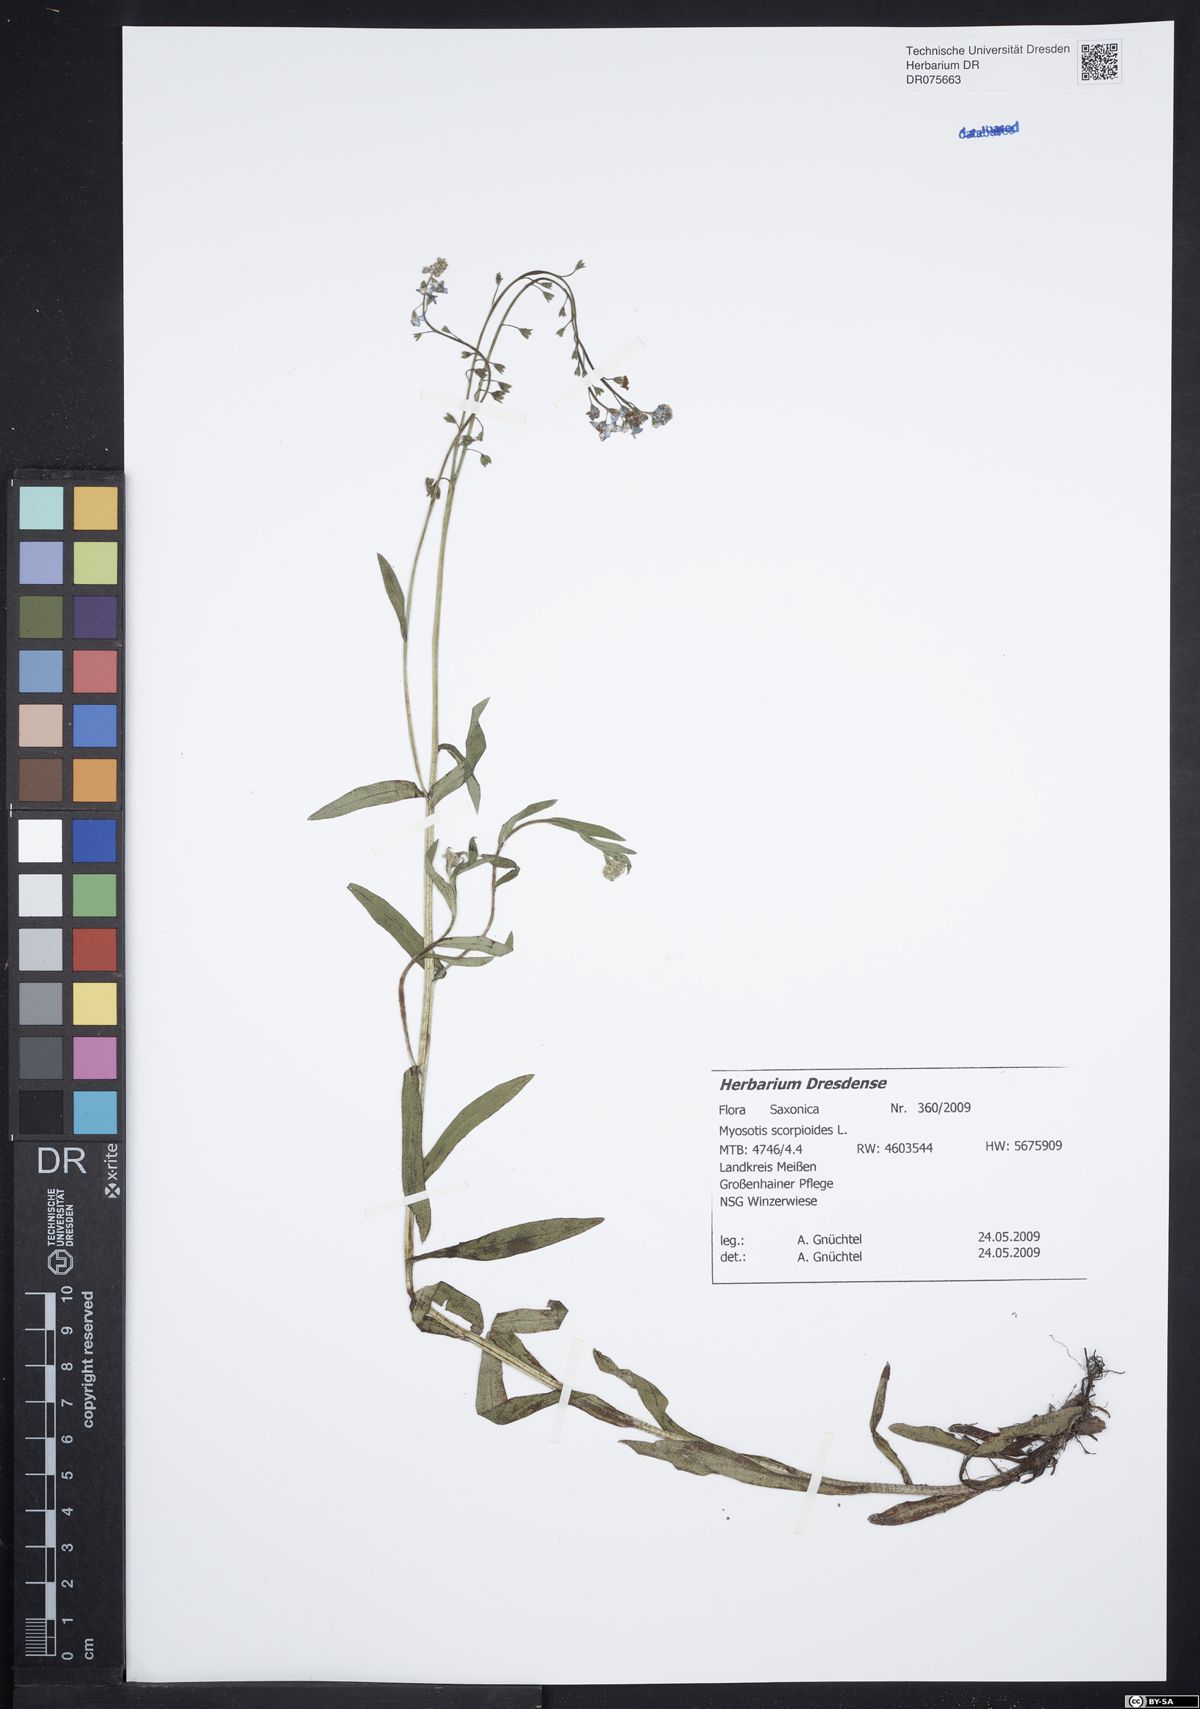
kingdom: Plantae
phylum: Tracheophyta
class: Magnoliopsida
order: Boraginales
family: Boraginaceae
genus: Myosotis
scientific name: Myosotis scorpioides
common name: Water forget-me-not
